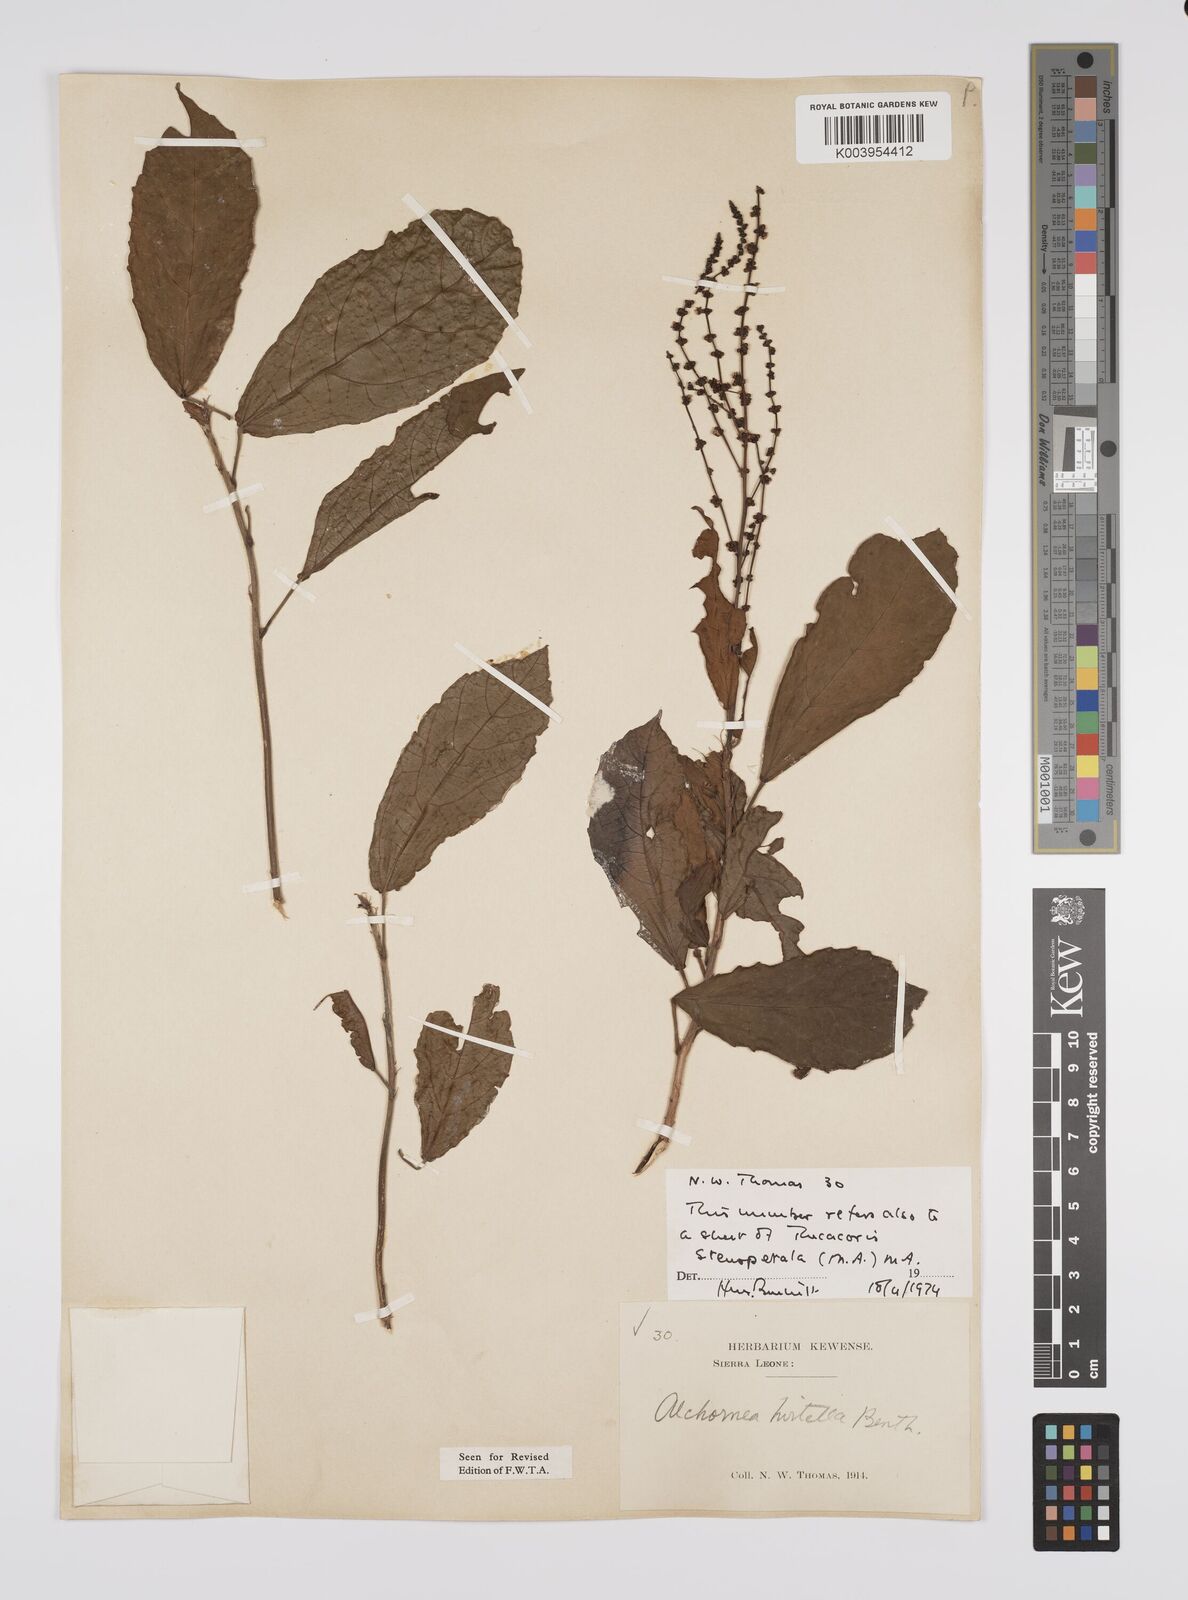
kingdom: Plantae
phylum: Tracheophyta
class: Magnoliopsida
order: Malpighiales
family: Euphorbiaceae
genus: Alchornea
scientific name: Alchornea hirtella
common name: Forest bead-string
